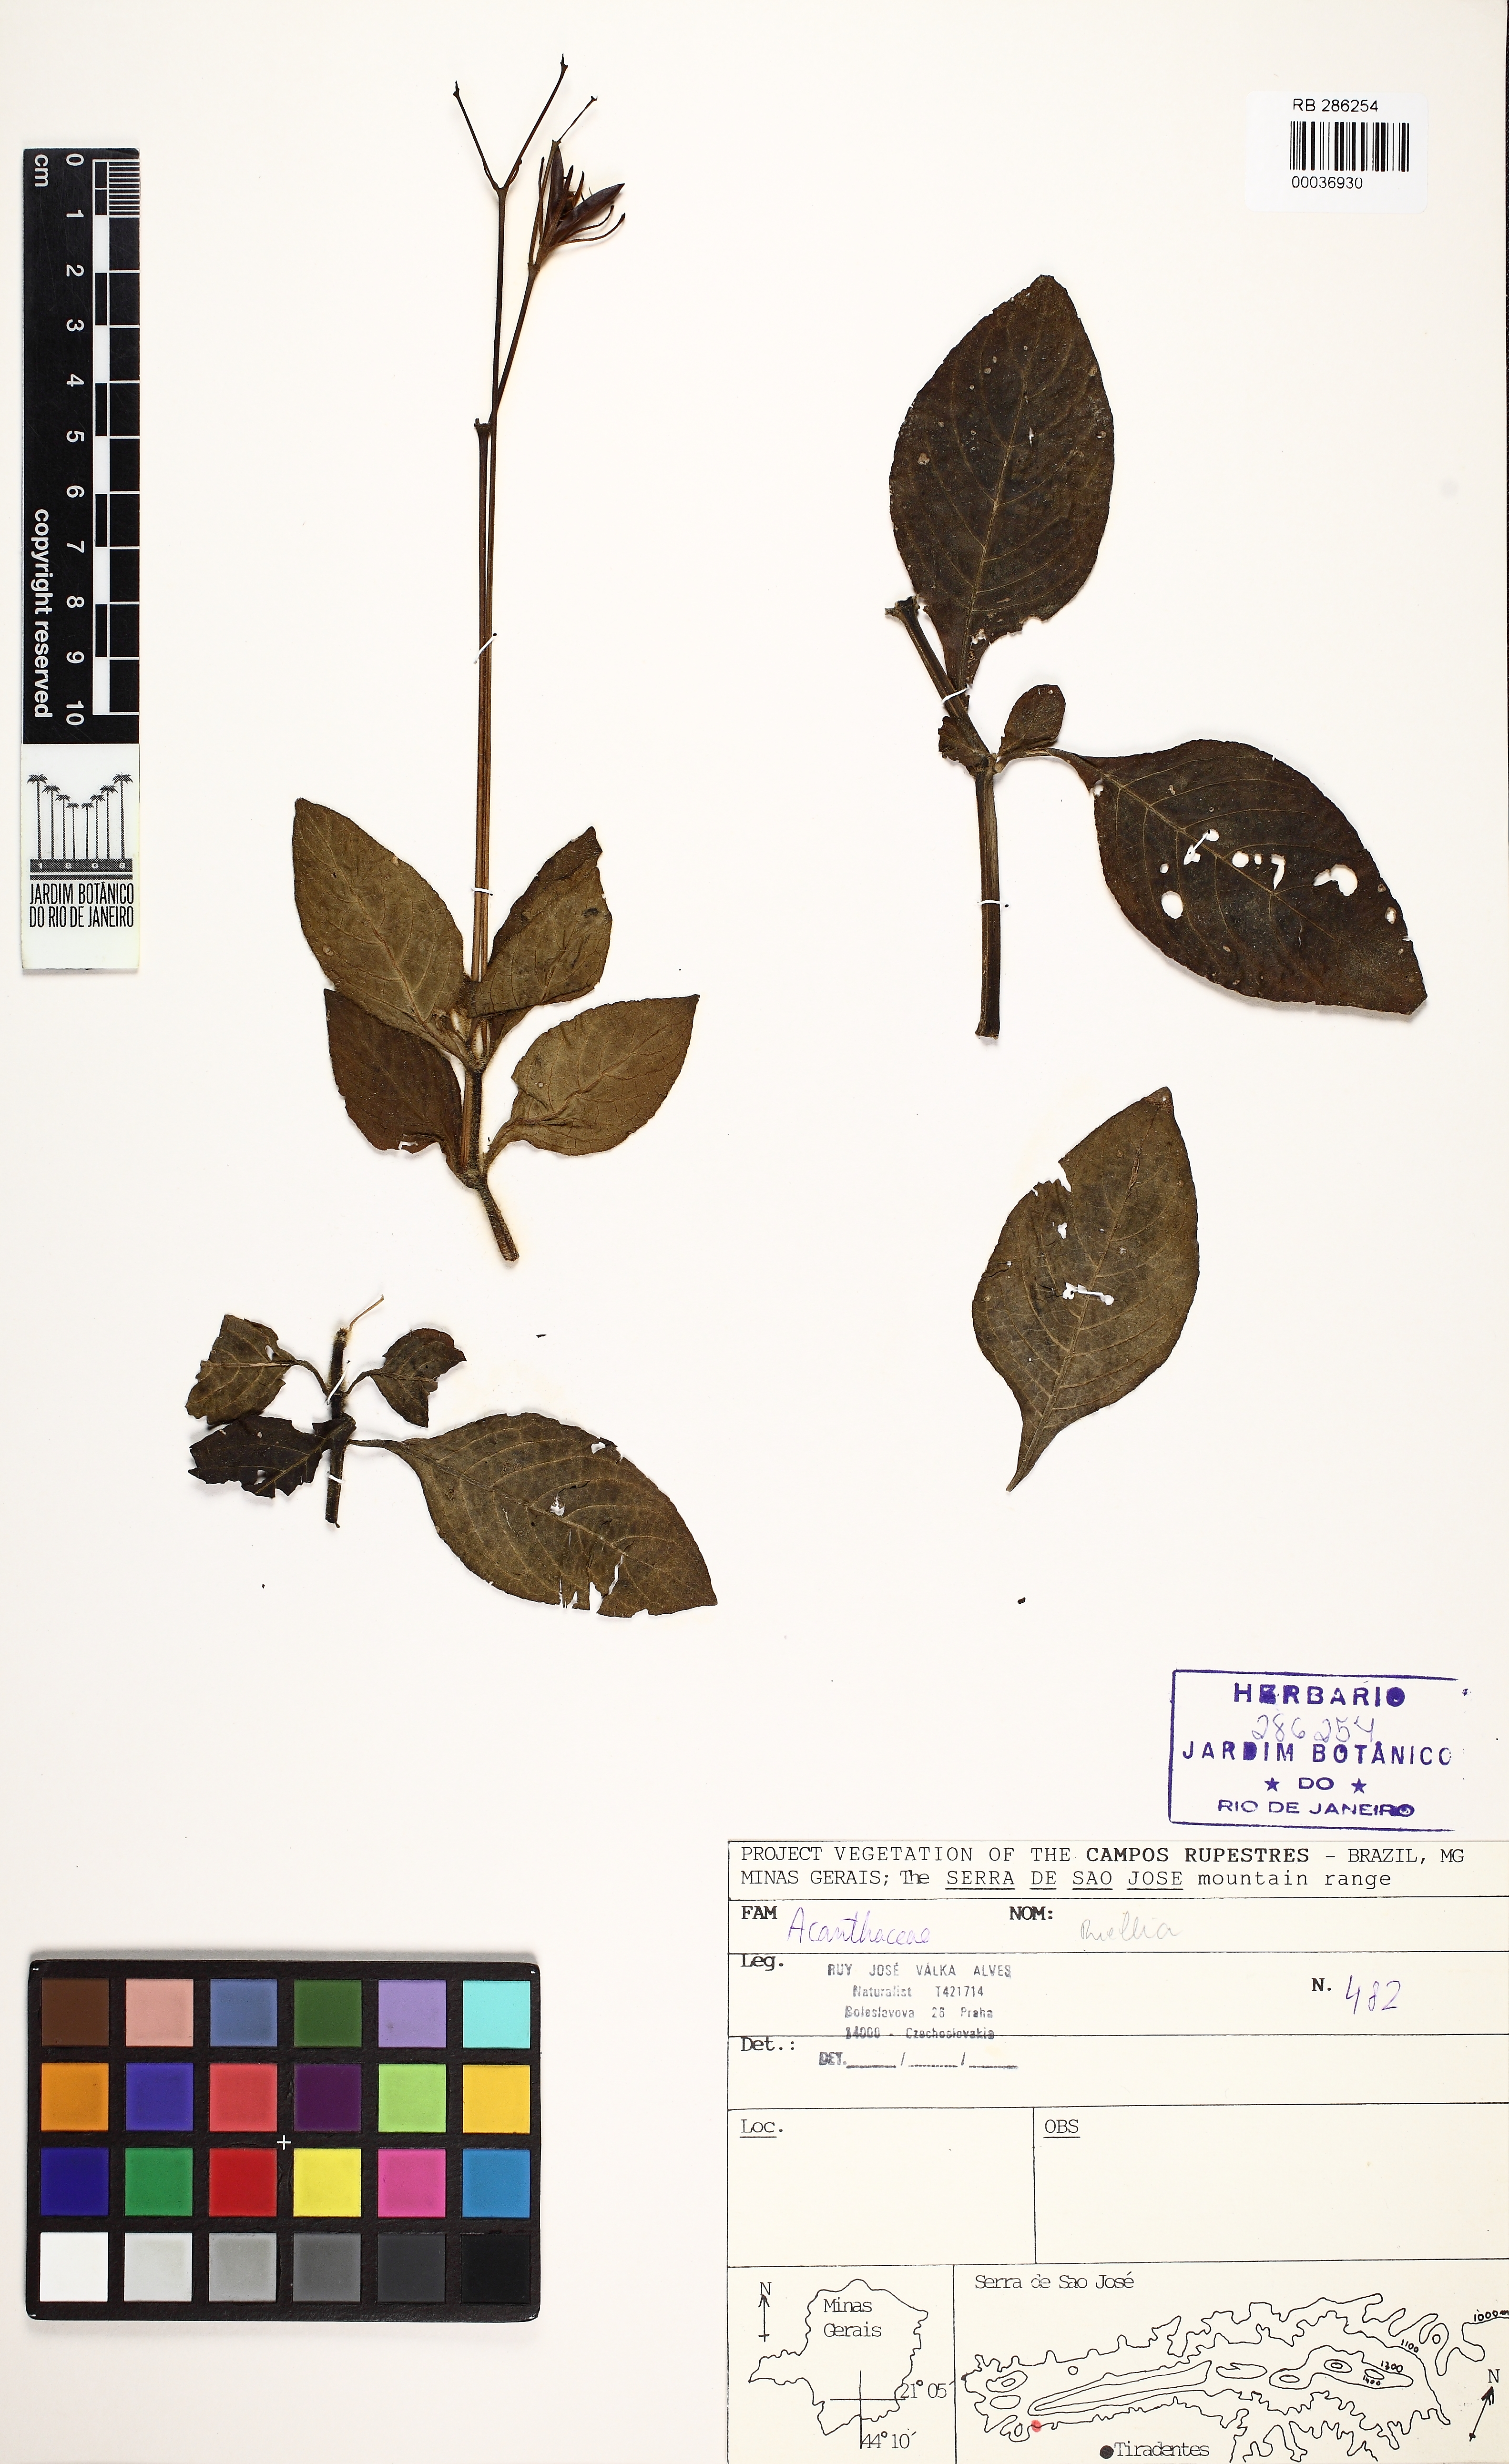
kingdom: Plantae
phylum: Tracheophyta
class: Magnoliopsida
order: Lamiales
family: Acanthaceae
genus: Ruellia
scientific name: Ruellia elegans
